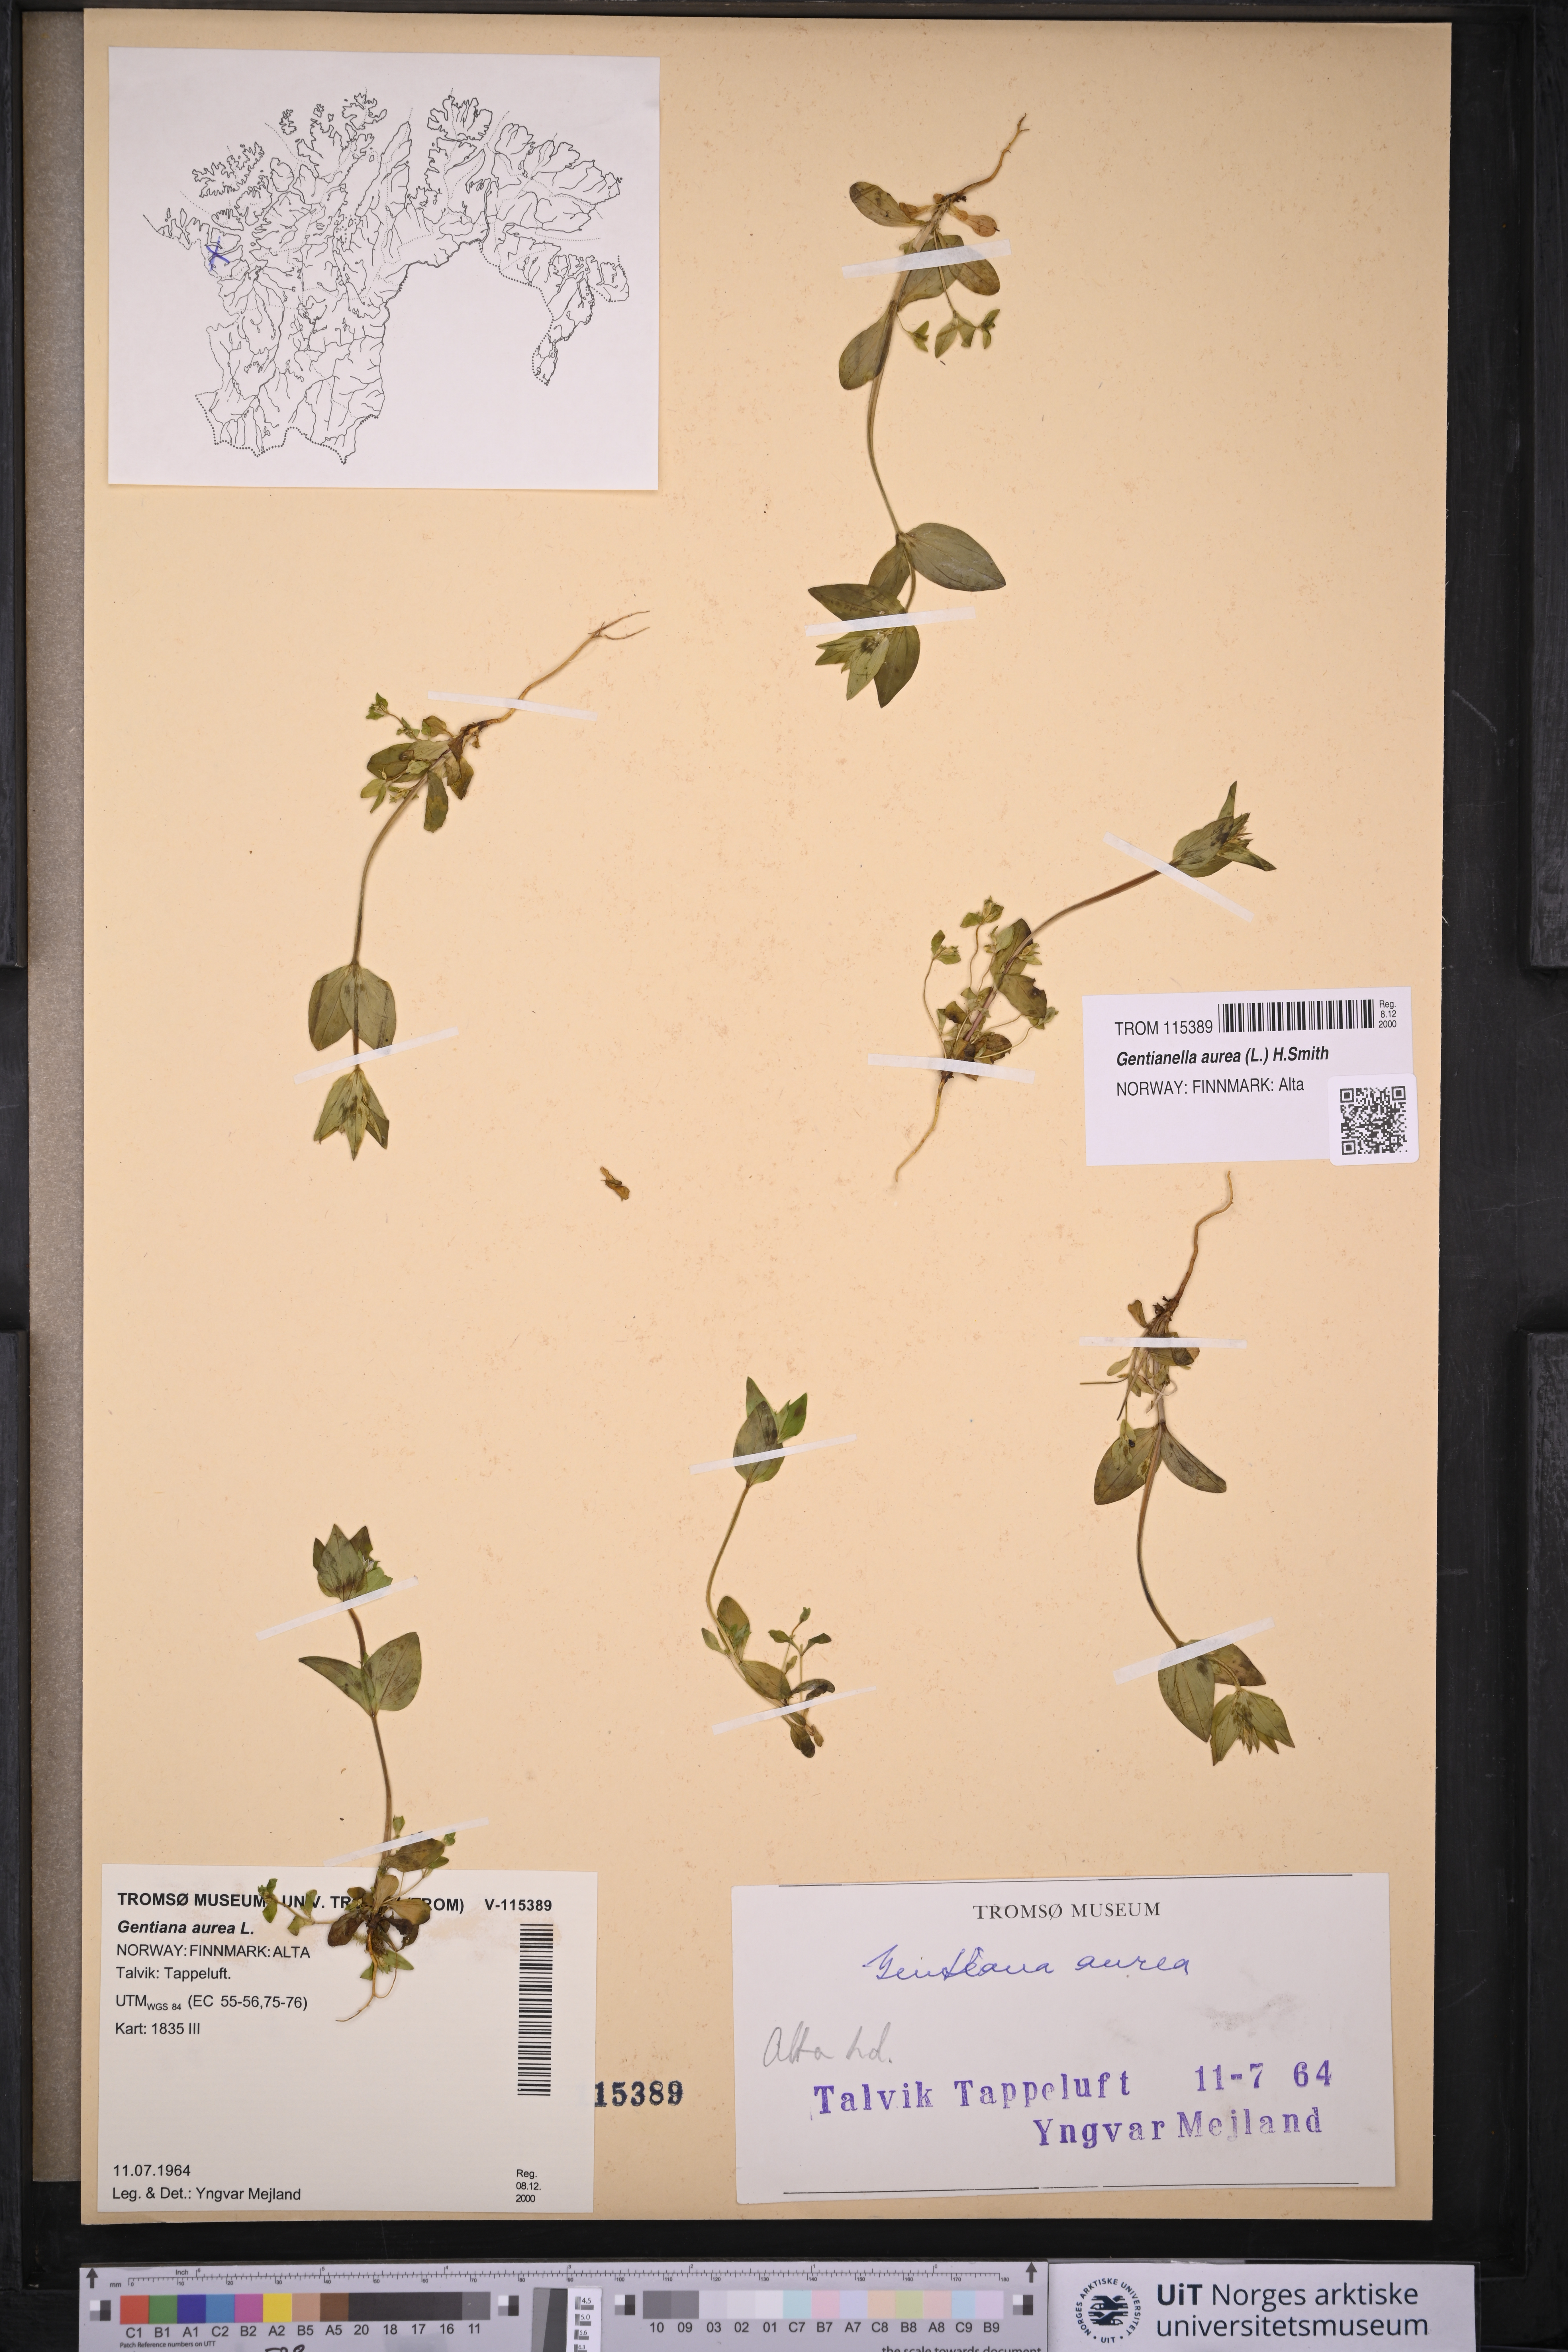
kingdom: Plantae
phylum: Tracheophyta
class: Magnoliopsida
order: Gentianales
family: Gentianaceae
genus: Gentianella
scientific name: Gentianella aurea
